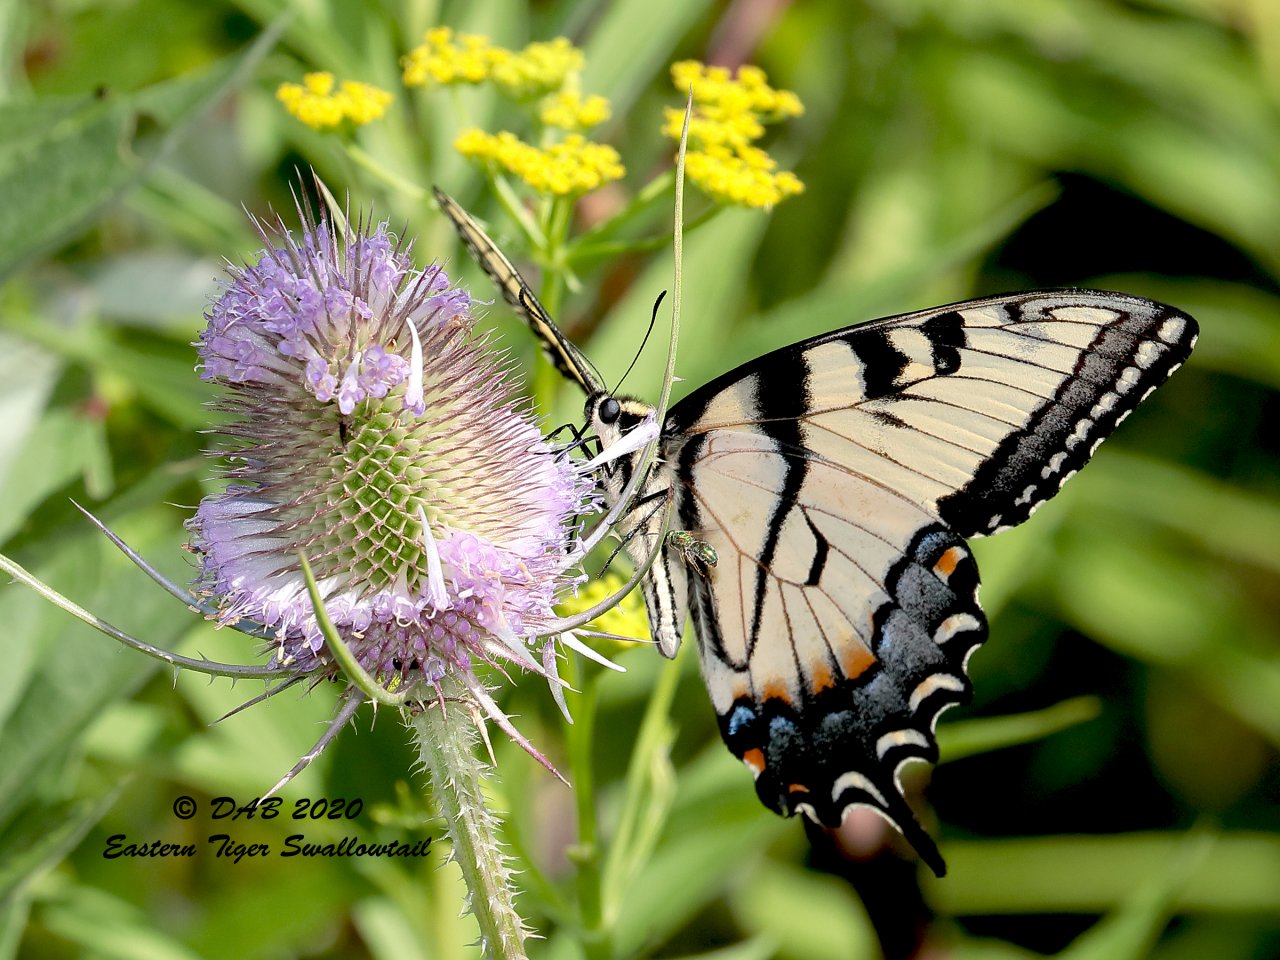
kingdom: Animalia
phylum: Arthropoda
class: Insecta
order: Lepidoptera
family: Papilionidae
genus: Pterourus
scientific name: Pterourus glaucus
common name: Eastern Tiger Swallowtail
